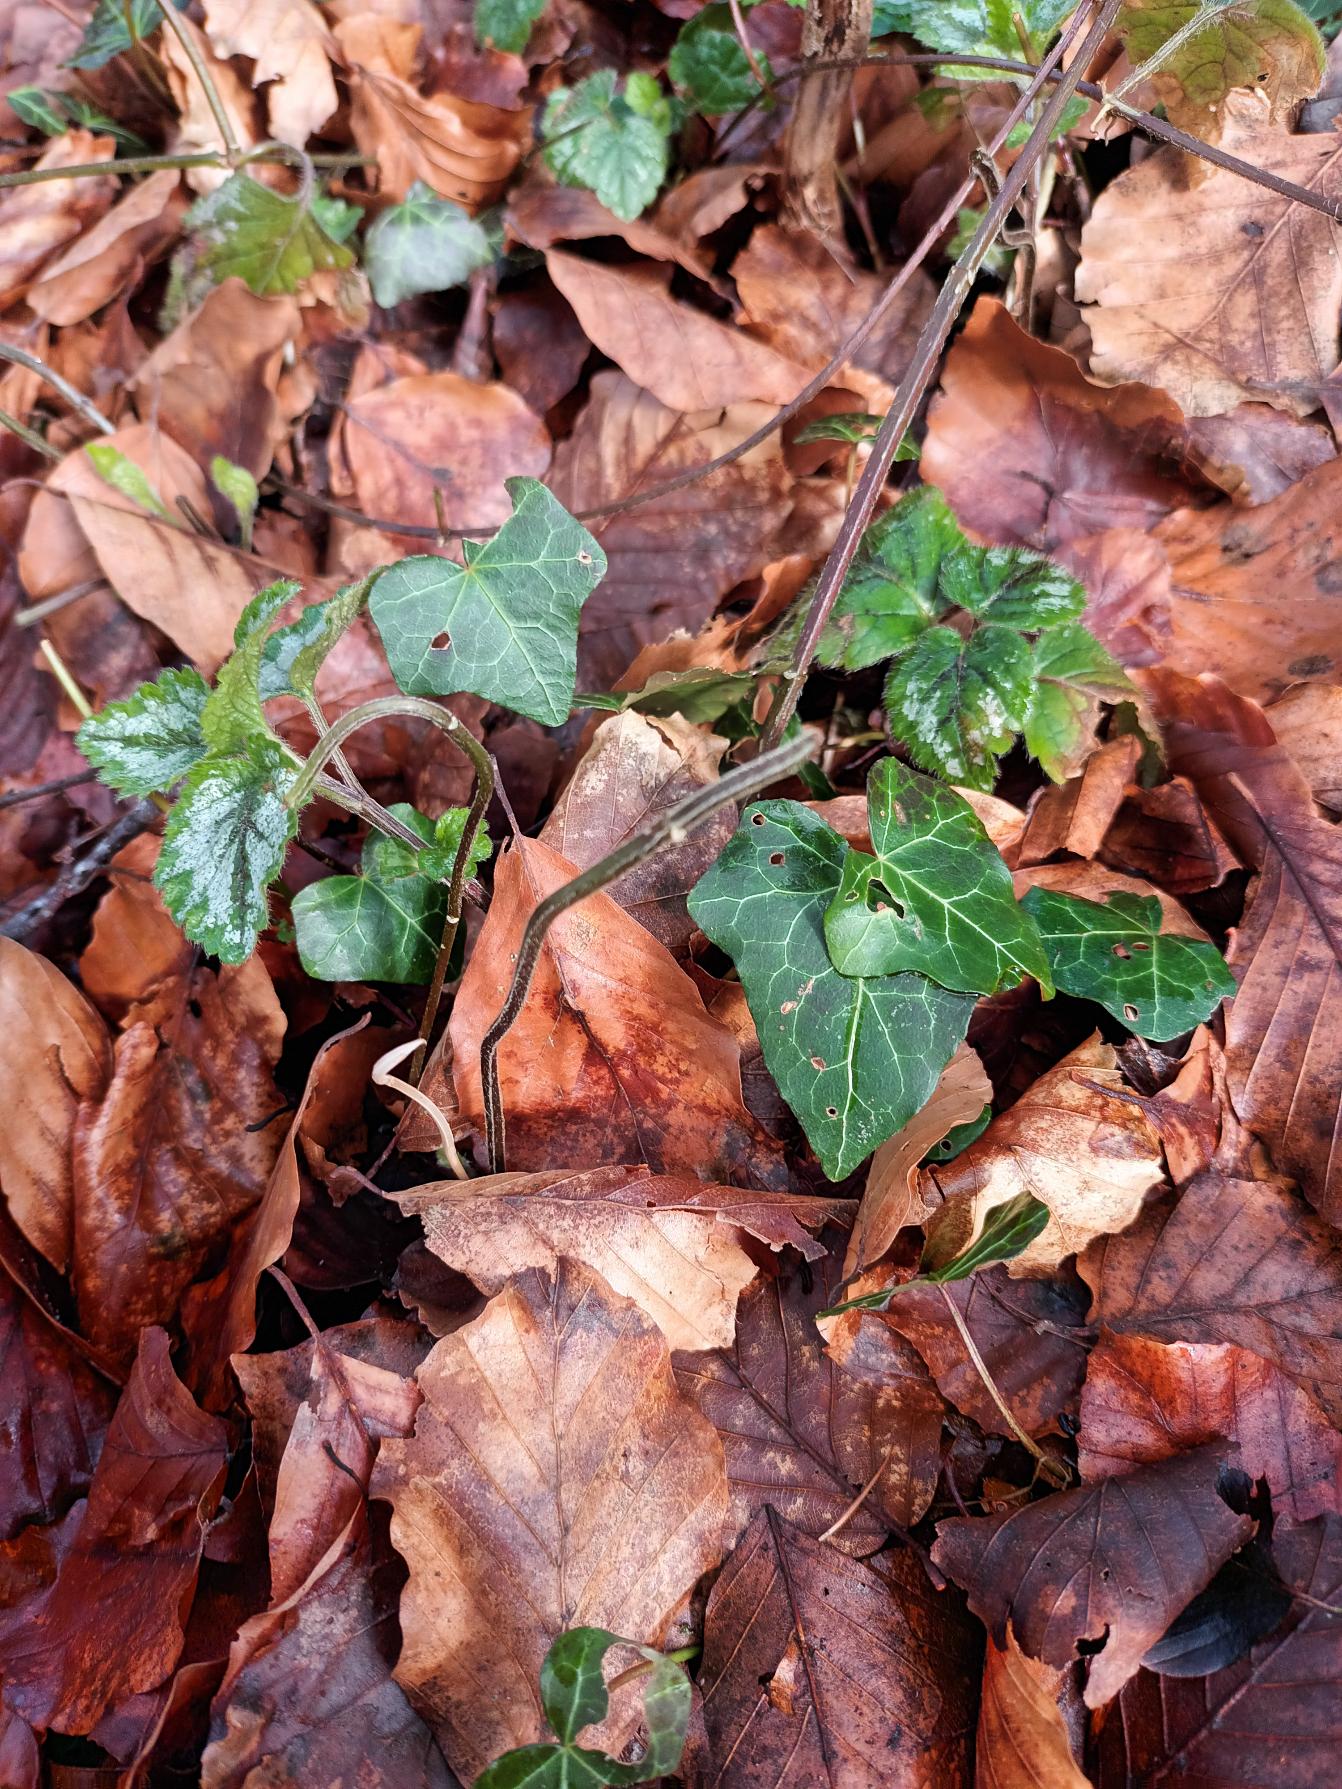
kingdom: Plantae
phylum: Tracheophyta
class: Magnoliopsida
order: Apiales
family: Araliaceae
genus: Hedera
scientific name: Hedera helix
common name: Vedbend
